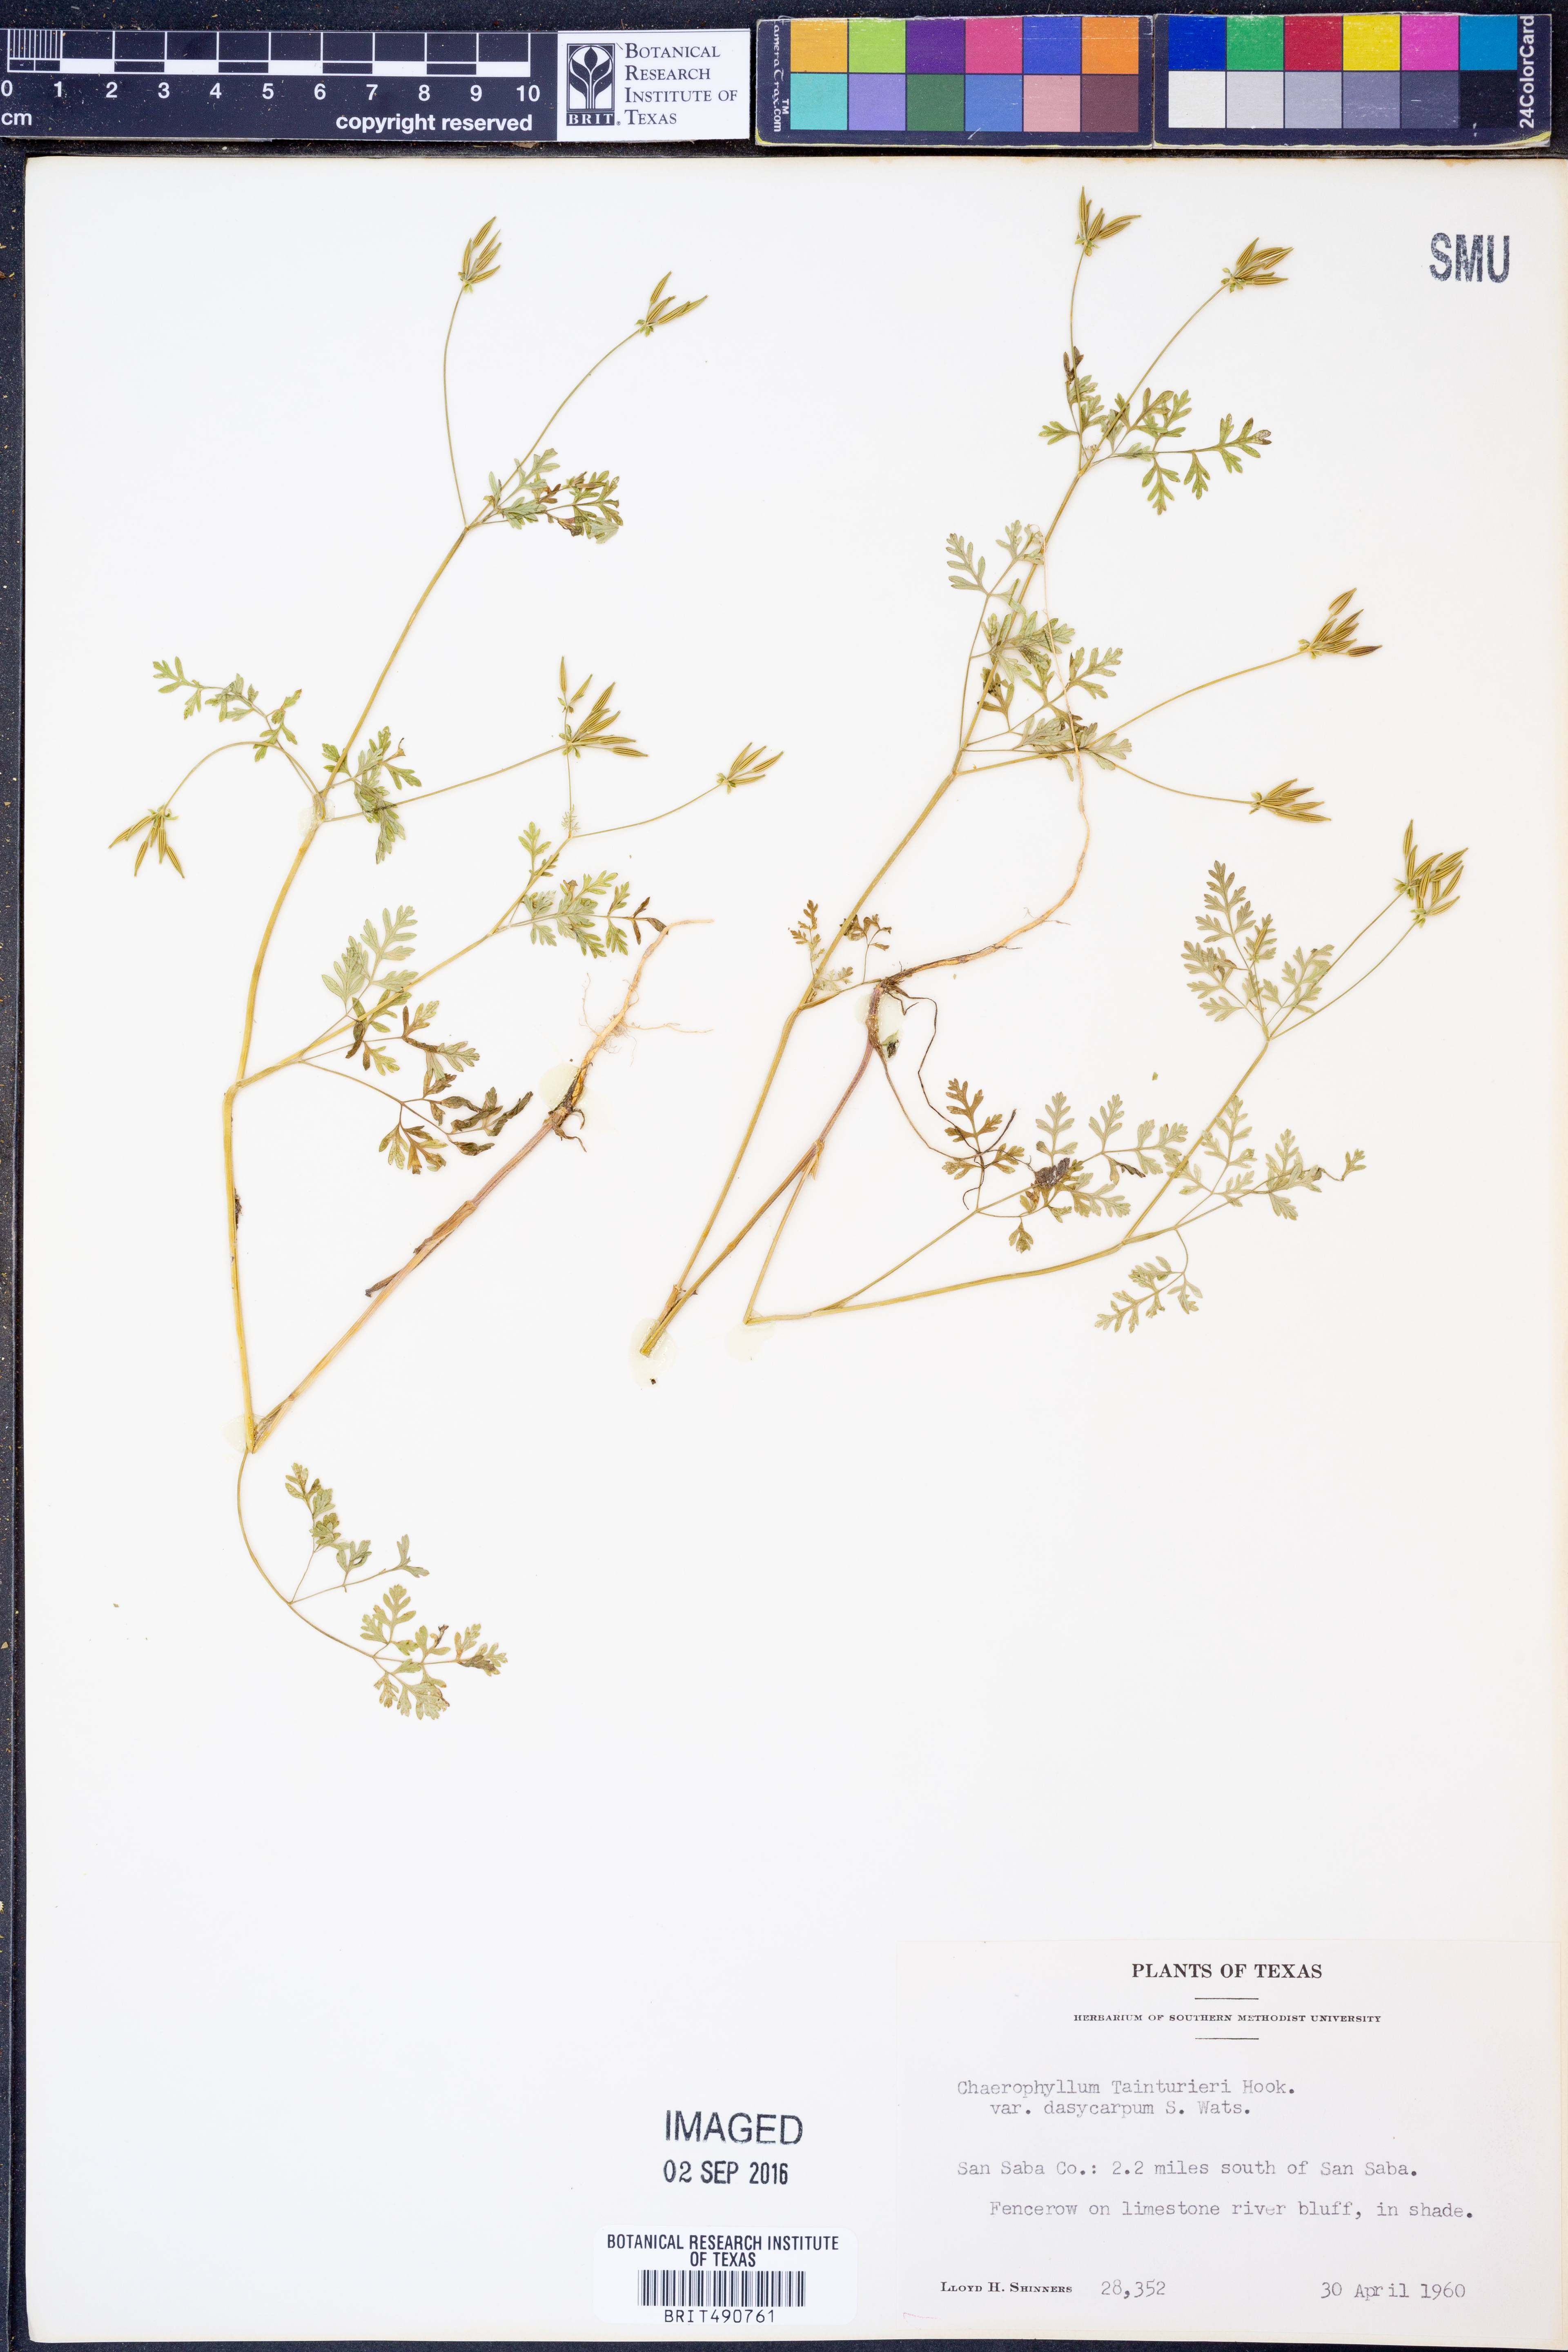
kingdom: Plantae
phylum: Tracheophyta
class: Magnoliopsida
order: Apiales
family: Apiaceae
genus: Chaerophyllum
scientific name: Chaerophyllum dasycarpum
